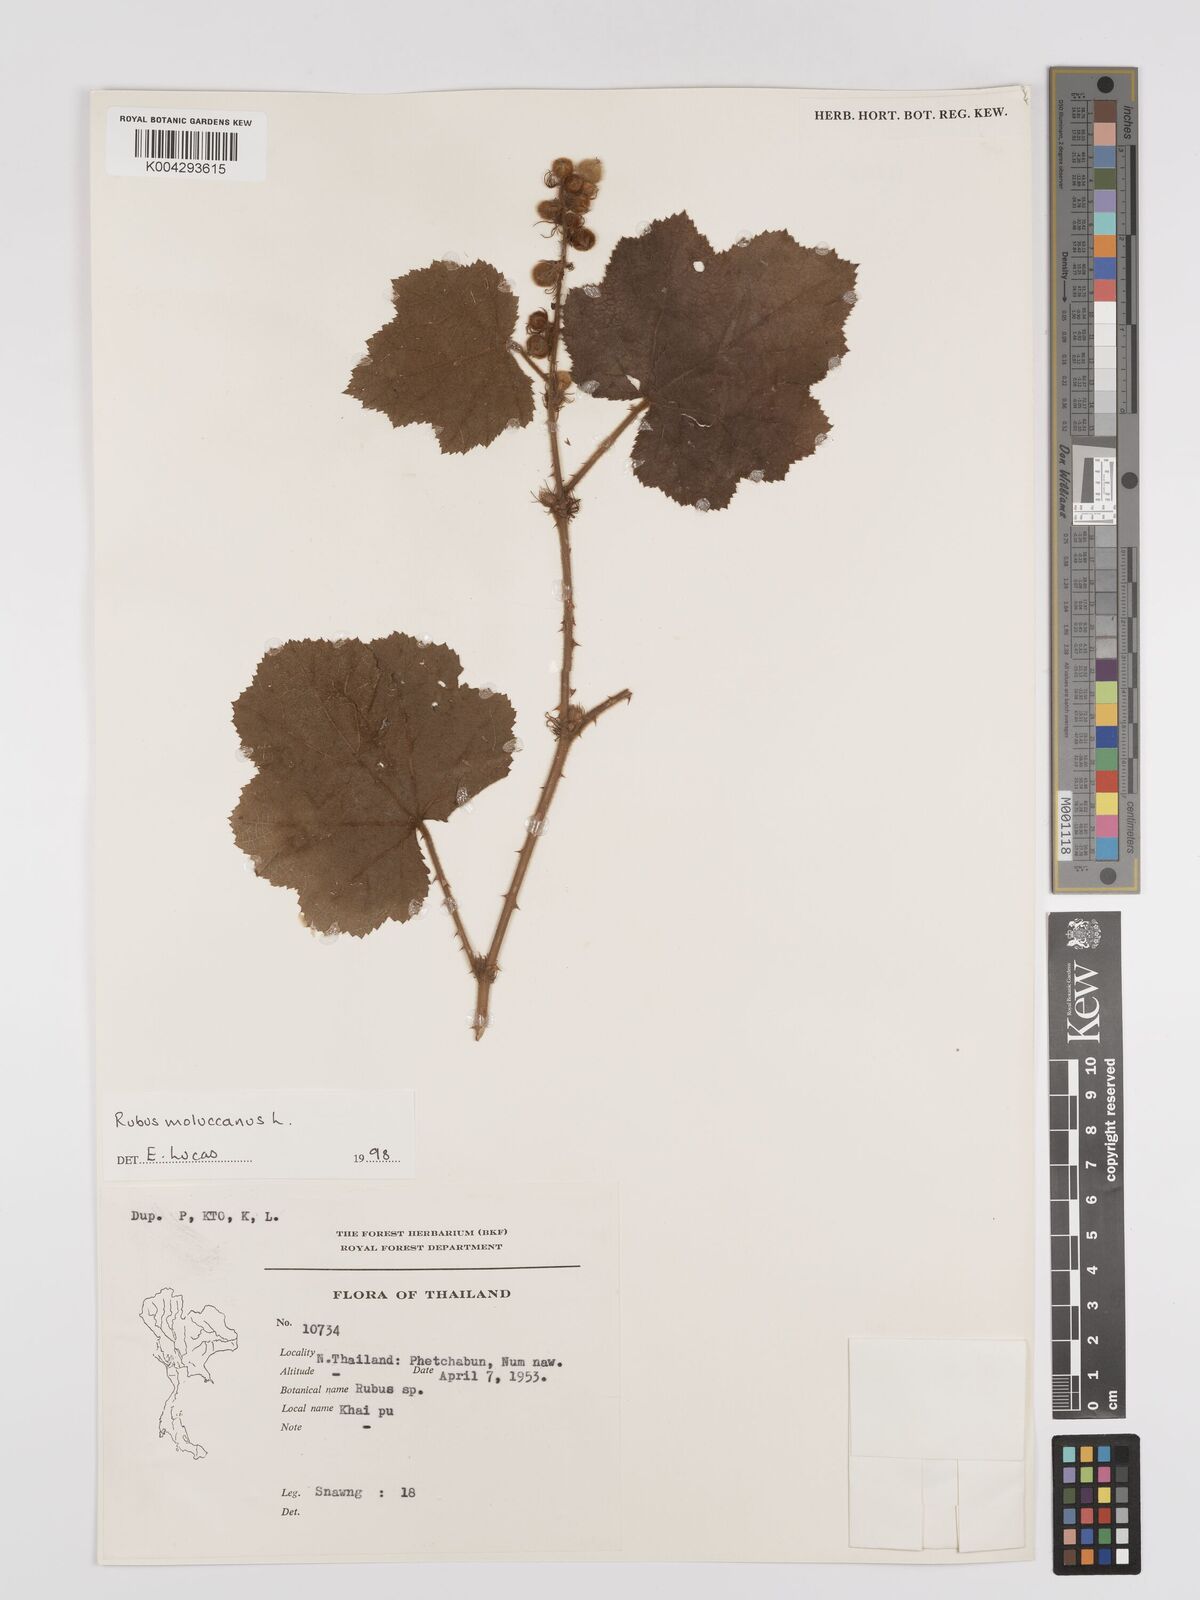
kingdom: Plantae
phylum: Tracheophyta
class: Magnoliopsida
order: Rosales
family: Rosaceae
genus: Rubus
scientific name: Rubus moluccanus
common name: Wild raspberry
